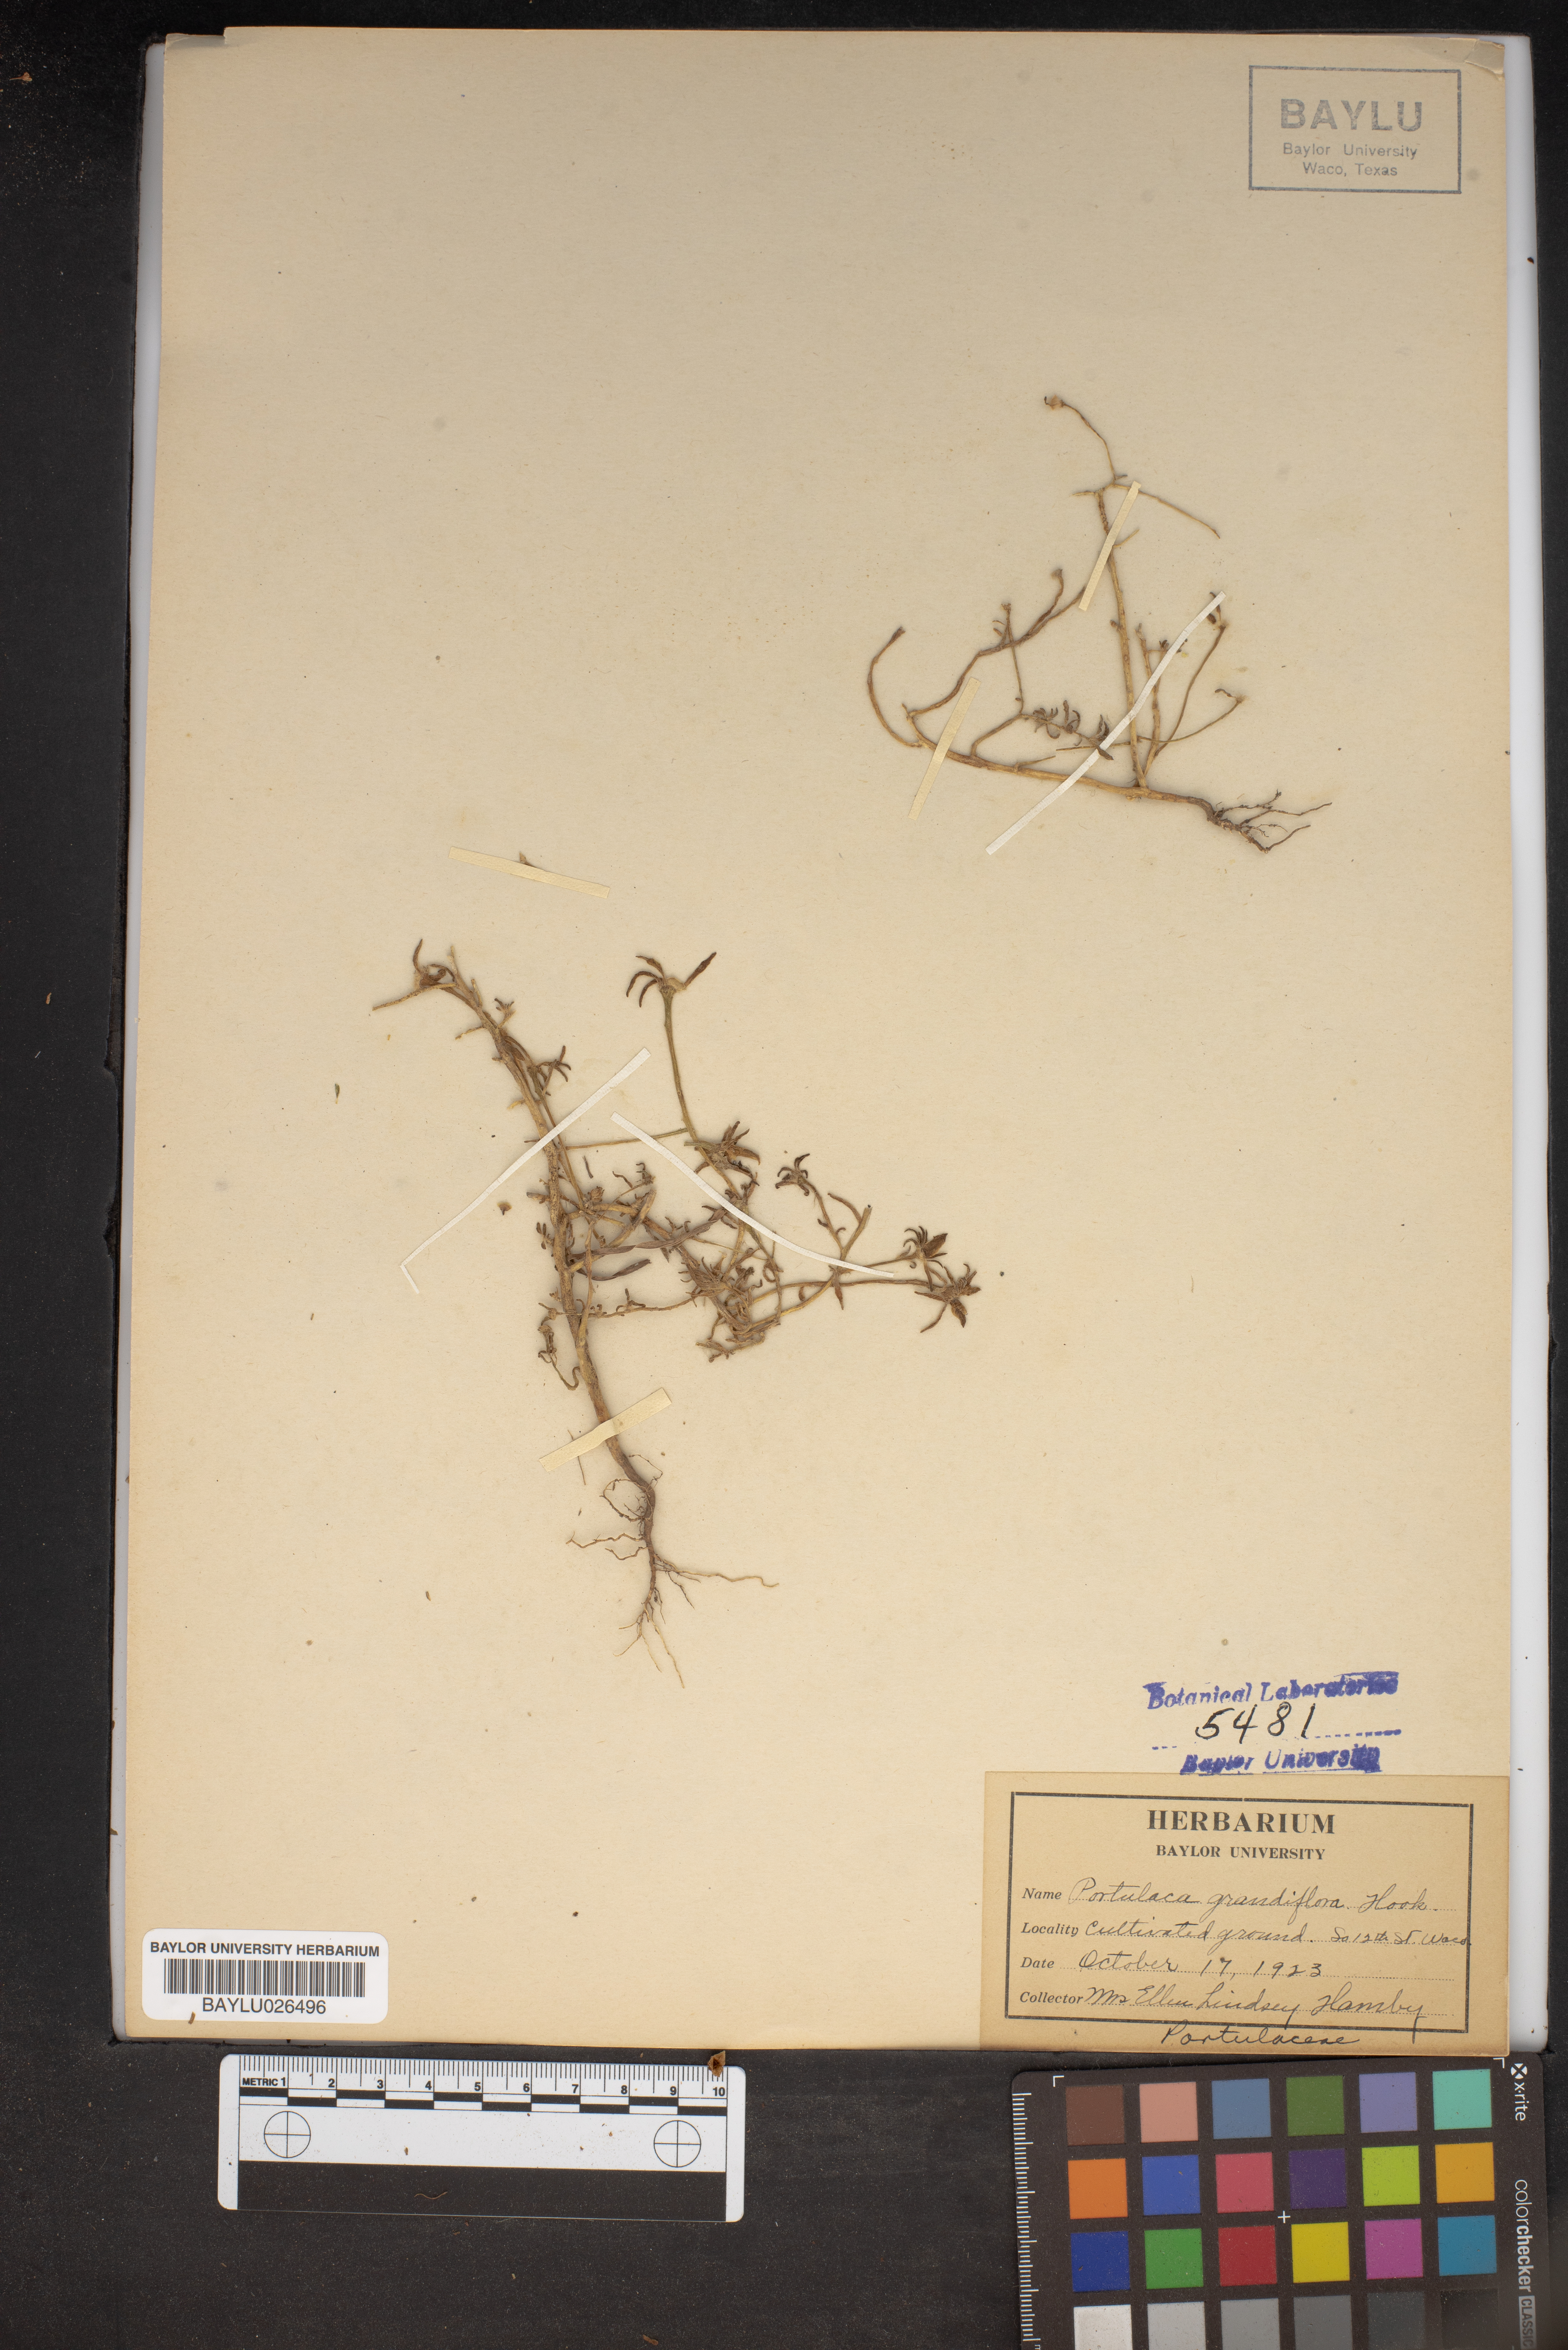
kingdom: Plantae
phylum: Tracheophyta
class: Magnoliopsida
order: Caryophyllales
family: Portulacaceae
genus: Portulaca
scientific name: Portulaca grandiflora
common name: Moss-rose
